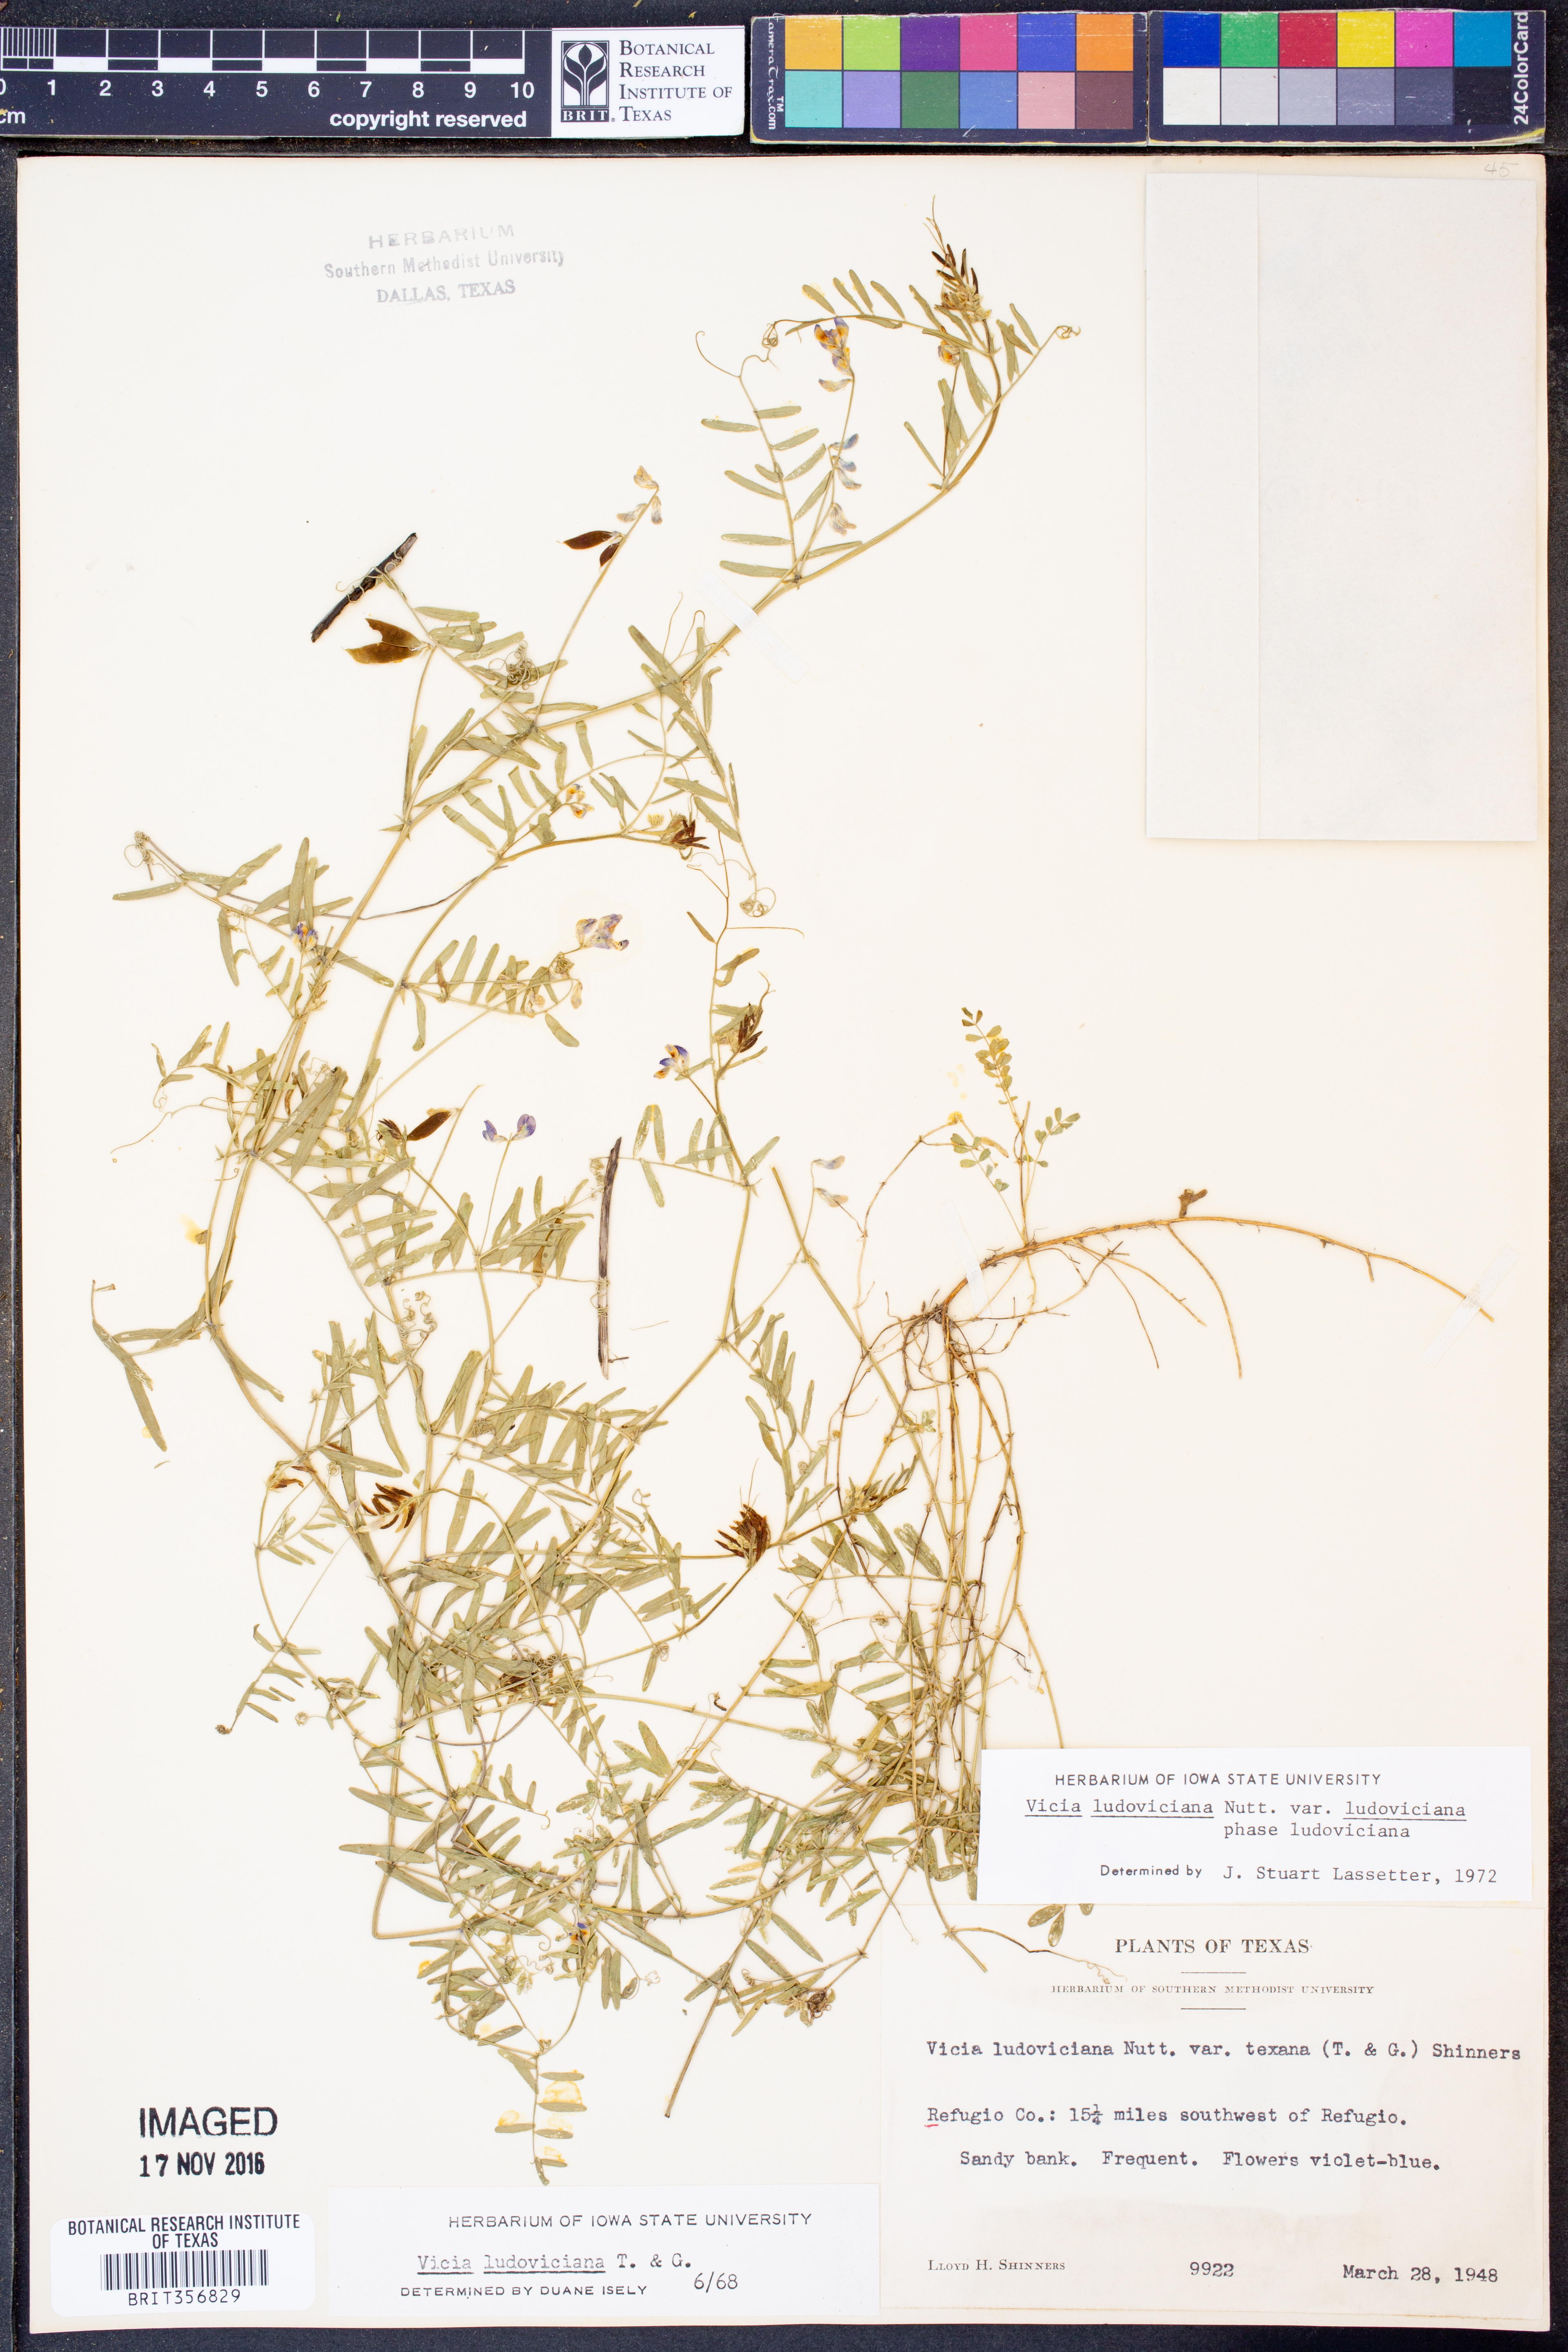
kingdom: Plantae
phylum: Tracheophyta
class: Magnoliopsida
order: Fabales
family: Fabaceae
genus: Vicia
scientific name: Vicia ludoviciana
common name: Louisiana vetch
